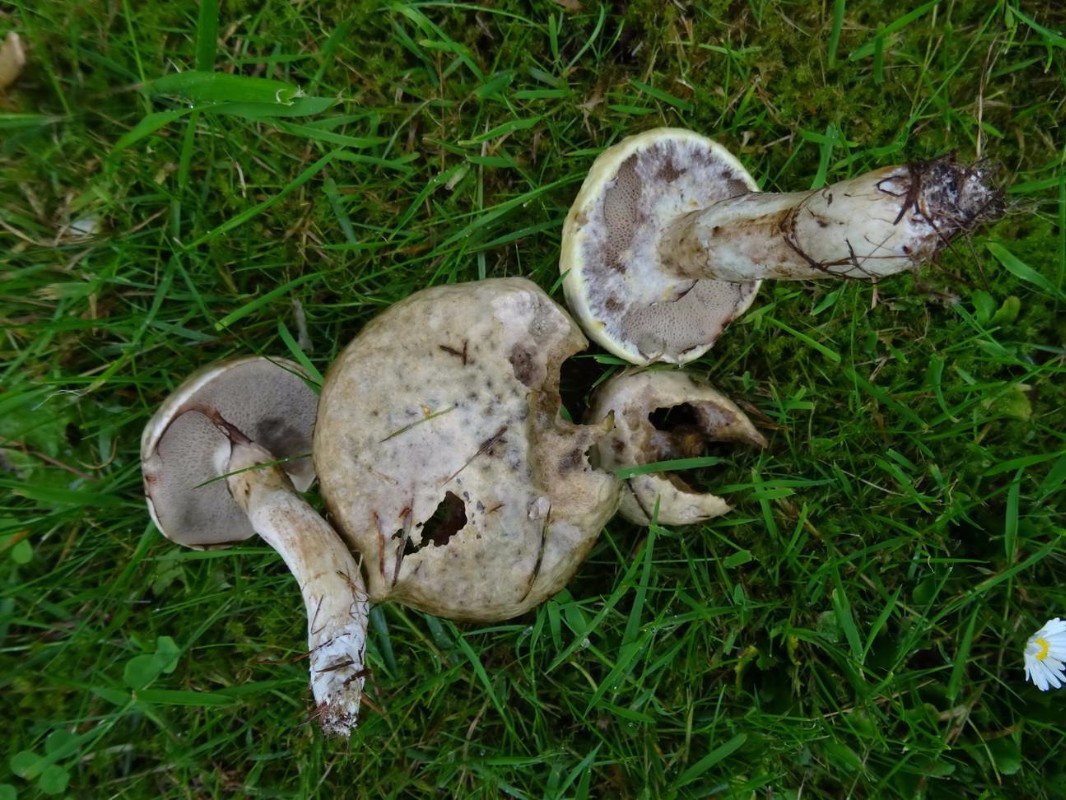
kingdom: Fungi
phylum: Basidiomycota
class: Agaricomycetes
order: Boletales
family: Suillaceae
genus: Suillus
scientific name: Suillus viscidus
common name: olivengrå slimrørhat
